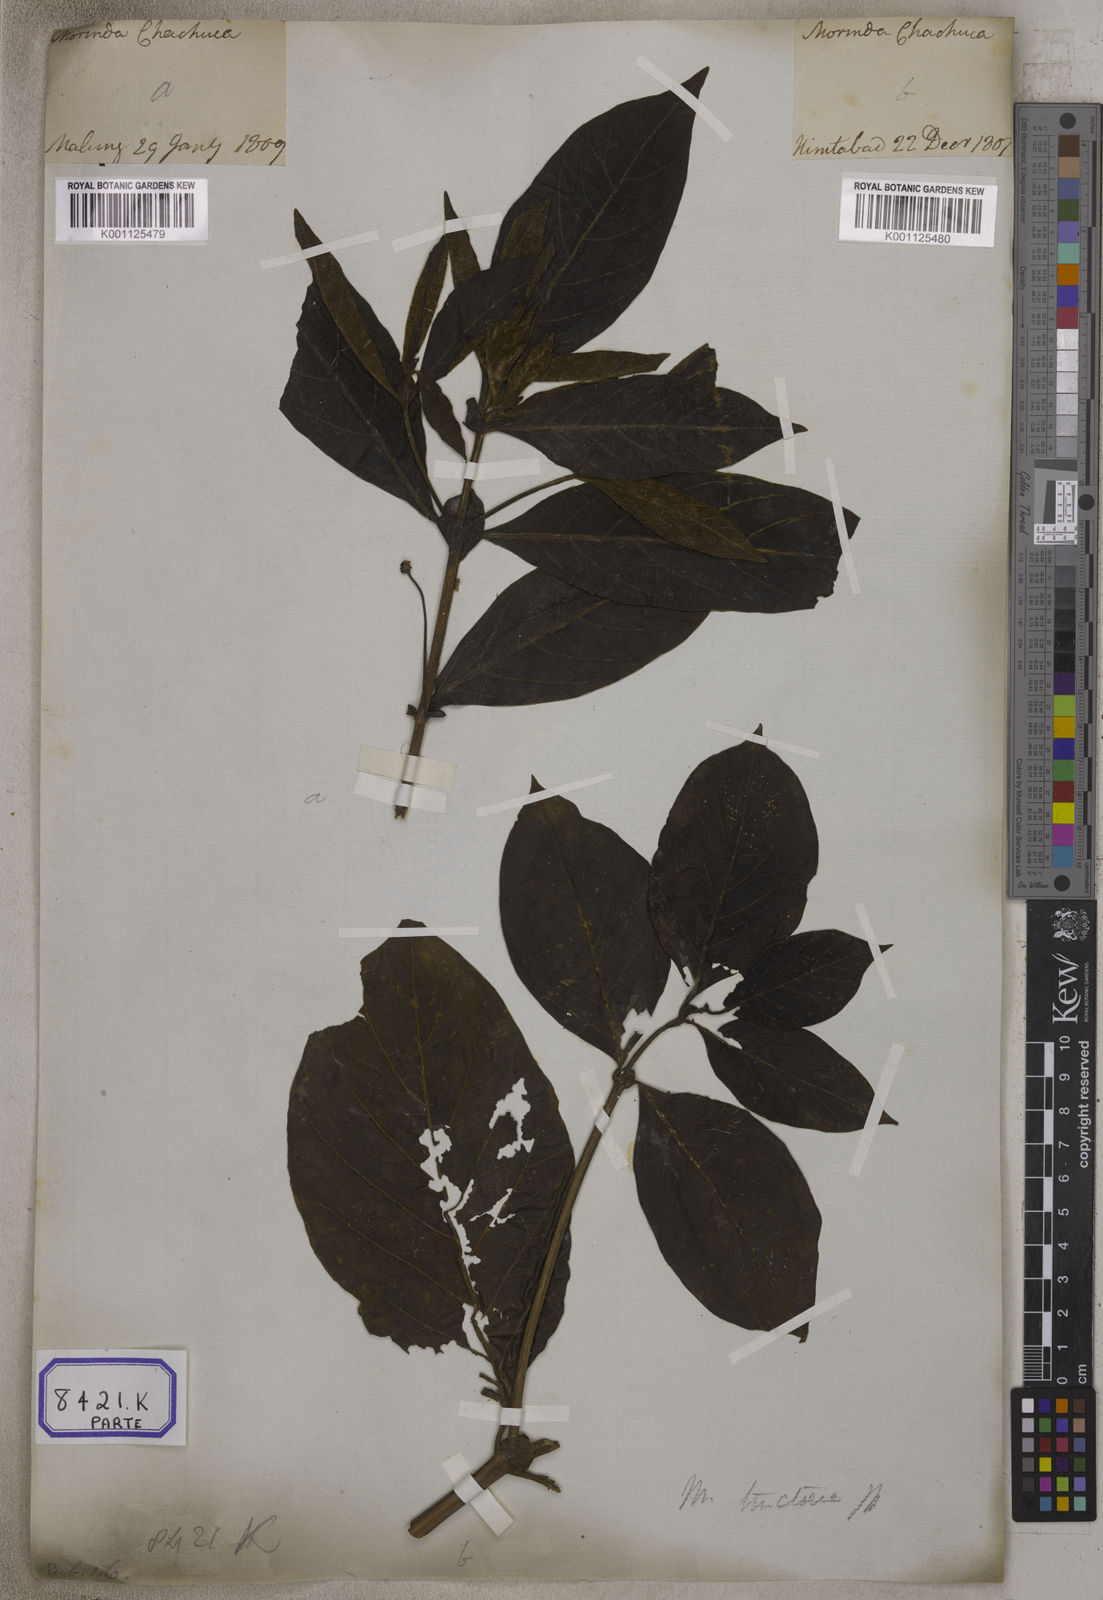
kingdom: Plantae
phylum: Tracheophyta
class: Magnoliopsida
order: Gentianales
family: Rubiaceae
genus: Morinda
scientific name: Morinda coreia
